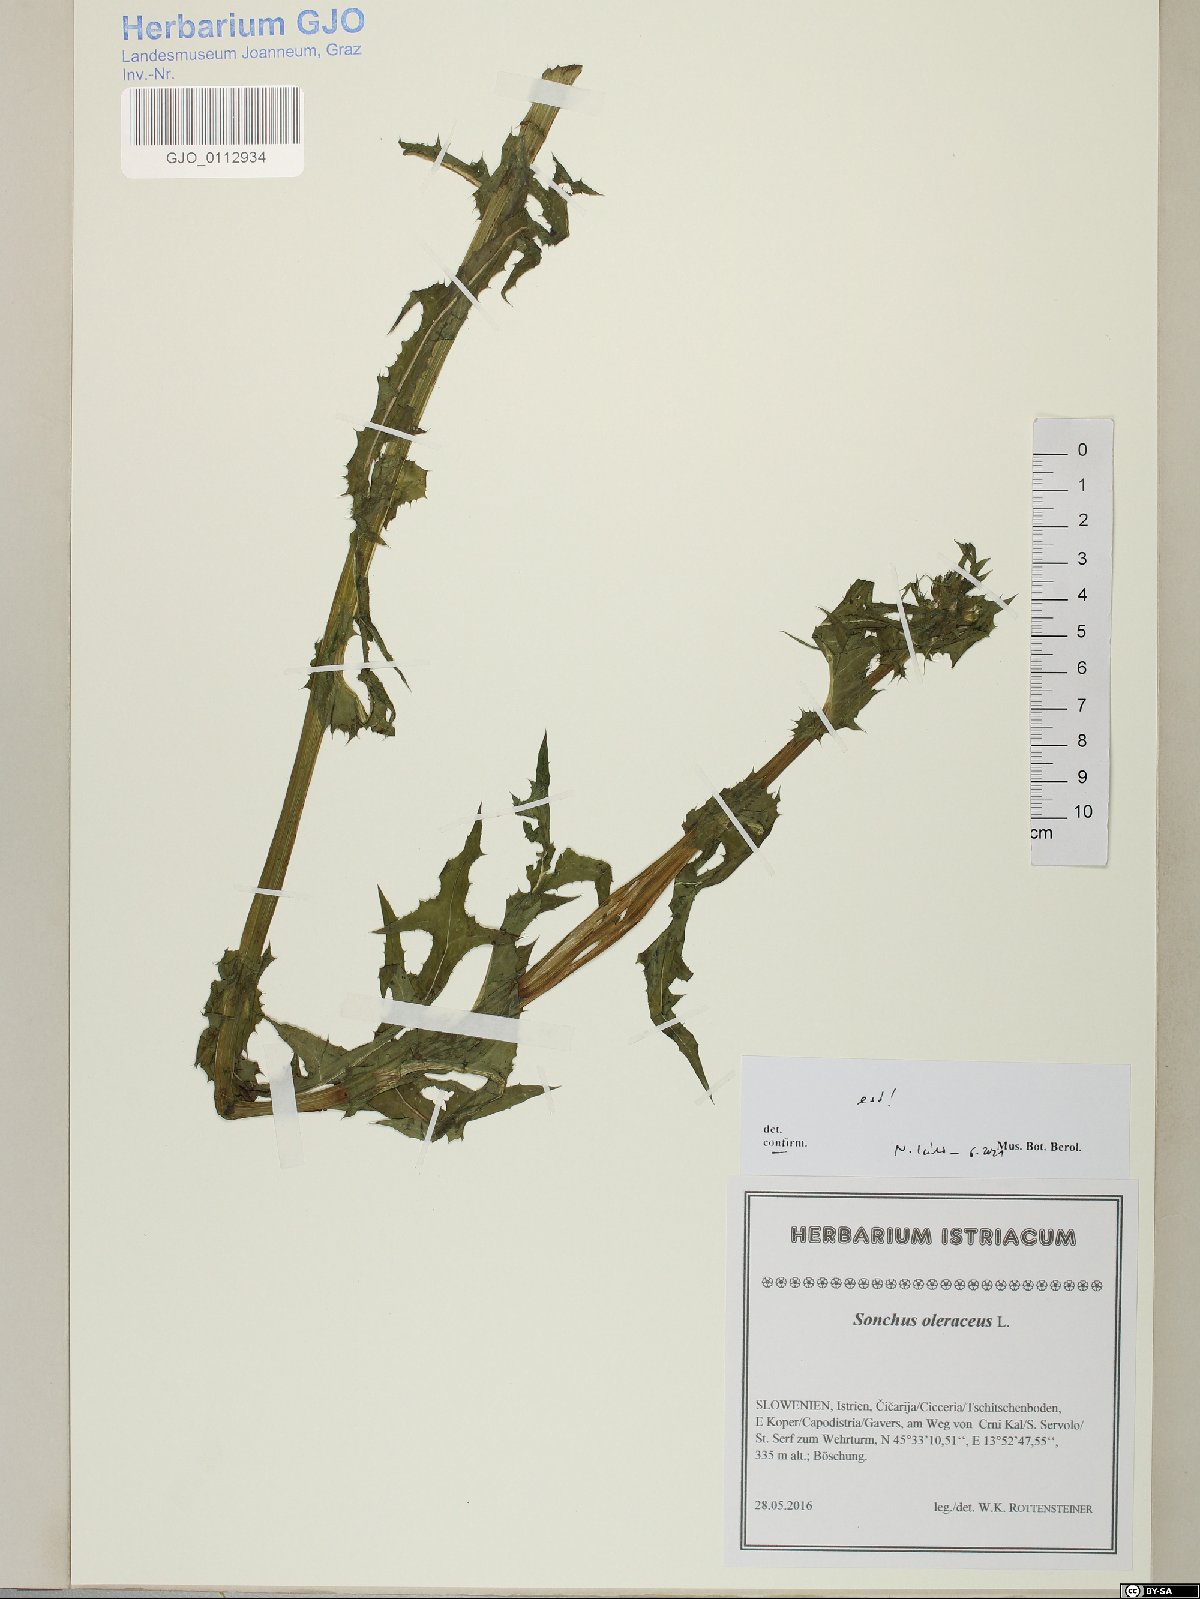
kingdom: Plantae
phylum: Tracheophyta
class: Magnoliopsida
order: Asterales
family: Asteraceae
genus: Sonchus
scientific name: Sonchus oleraceus
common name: Common sowthistle
